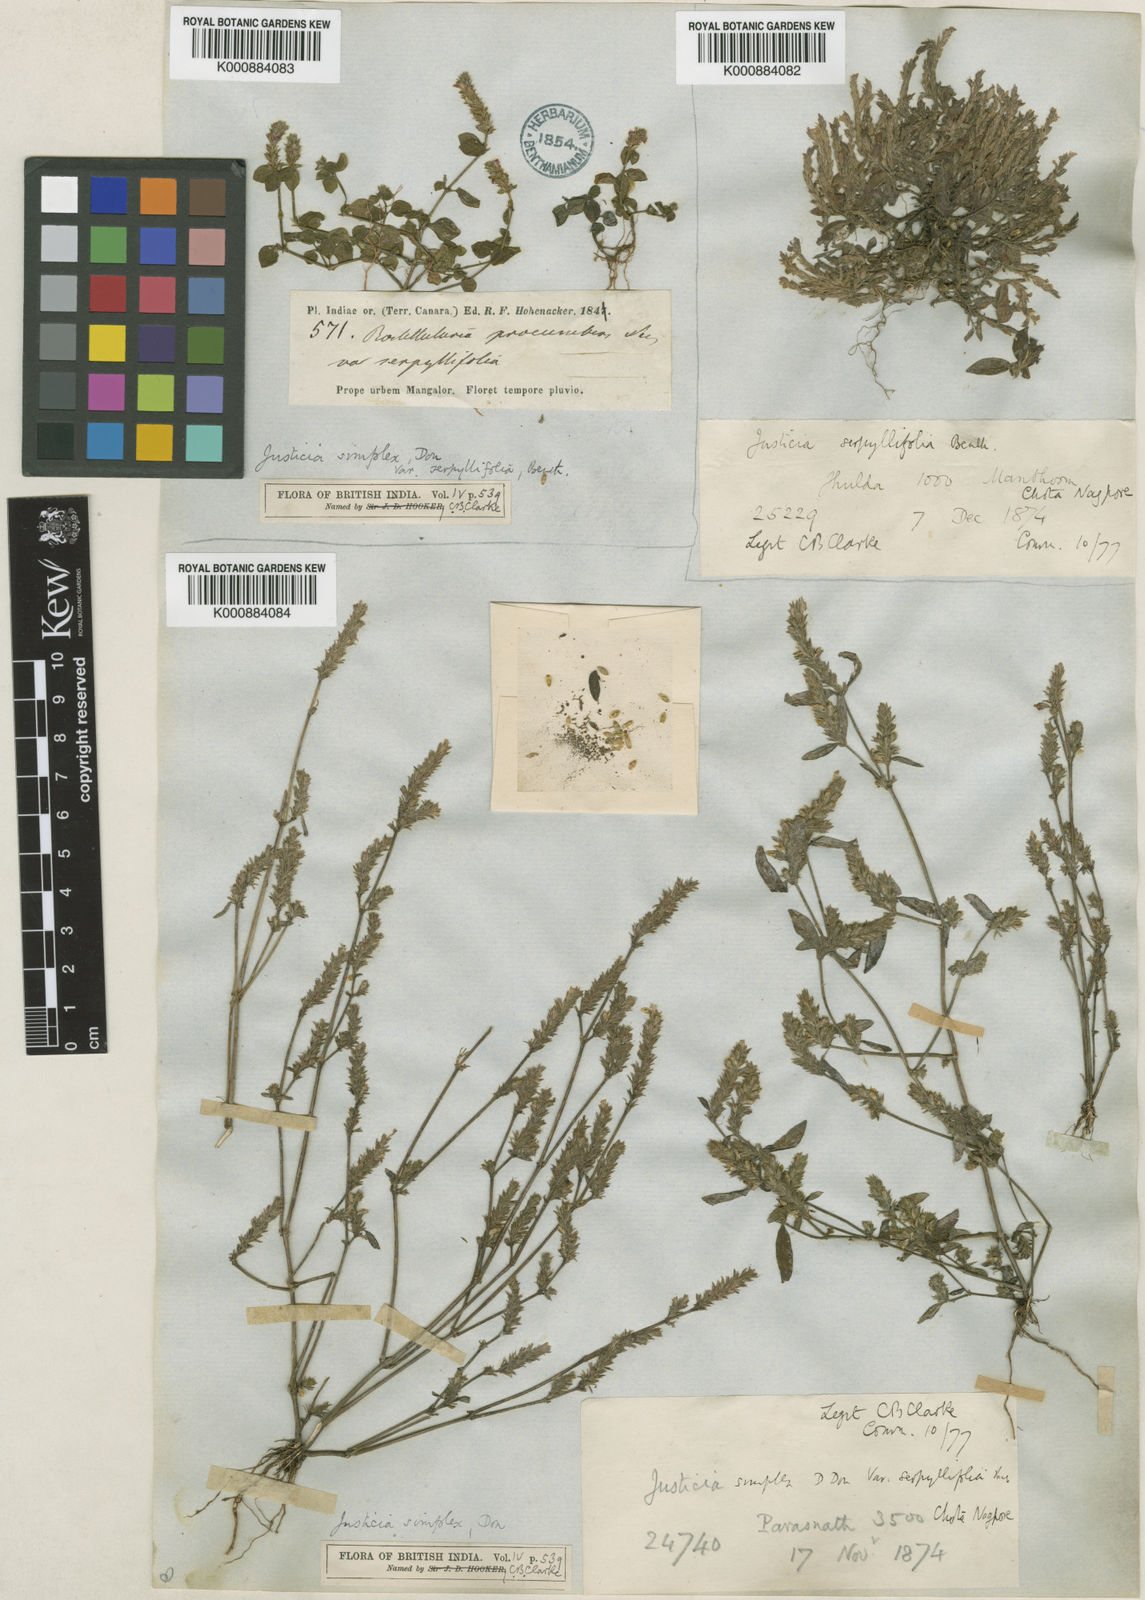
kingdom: Plantae
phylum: Tracheophyta
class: Magnoliopsida
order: Lamiales
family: Acanthaceae
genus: Rostellularia
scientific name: Rostellularia mollissima
